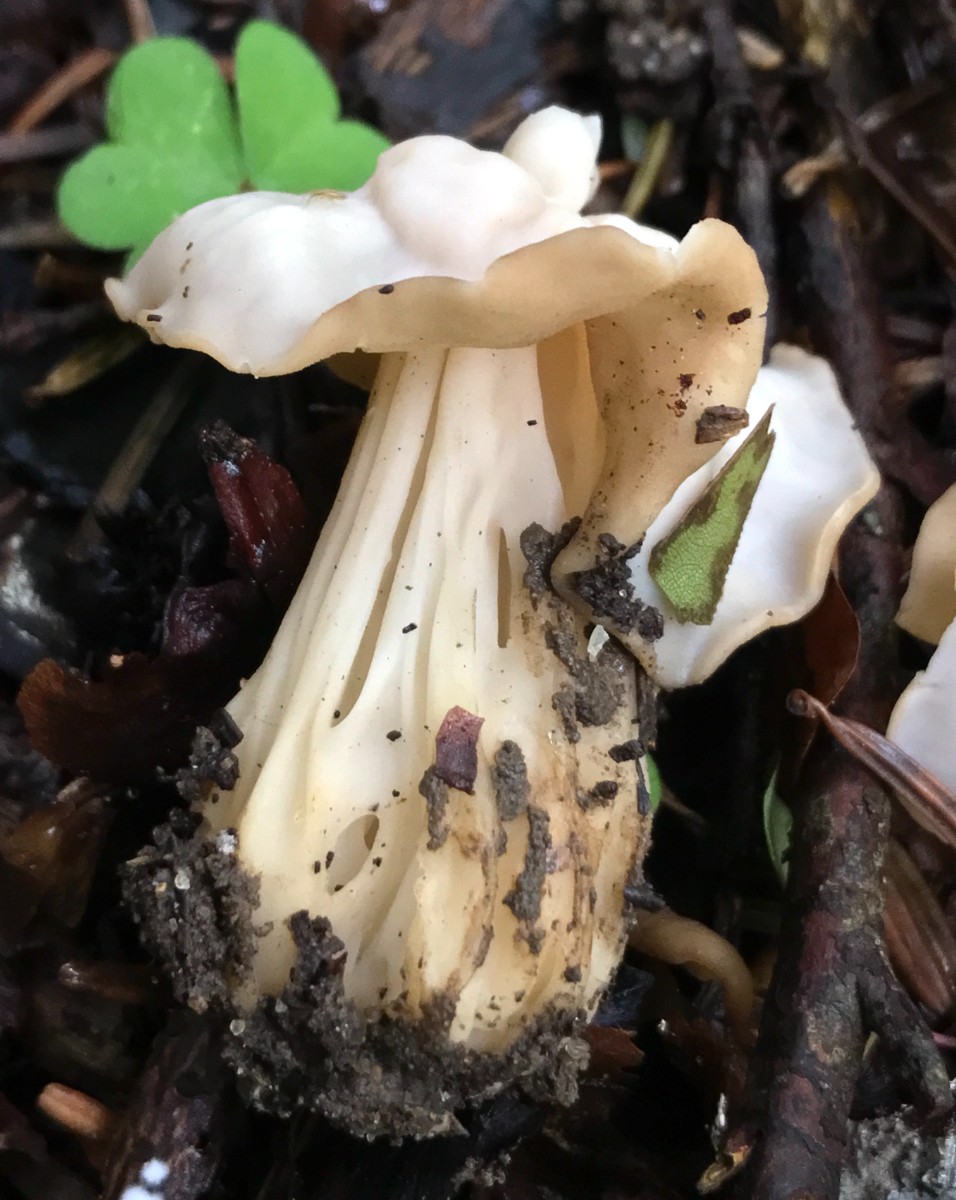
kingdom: Fungi
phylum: Ascomycota
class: Pezizomycetes
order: Pezizales
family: Helvellaceae
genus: Helvella
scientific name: Helvella crispa
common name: kruset foldhat
